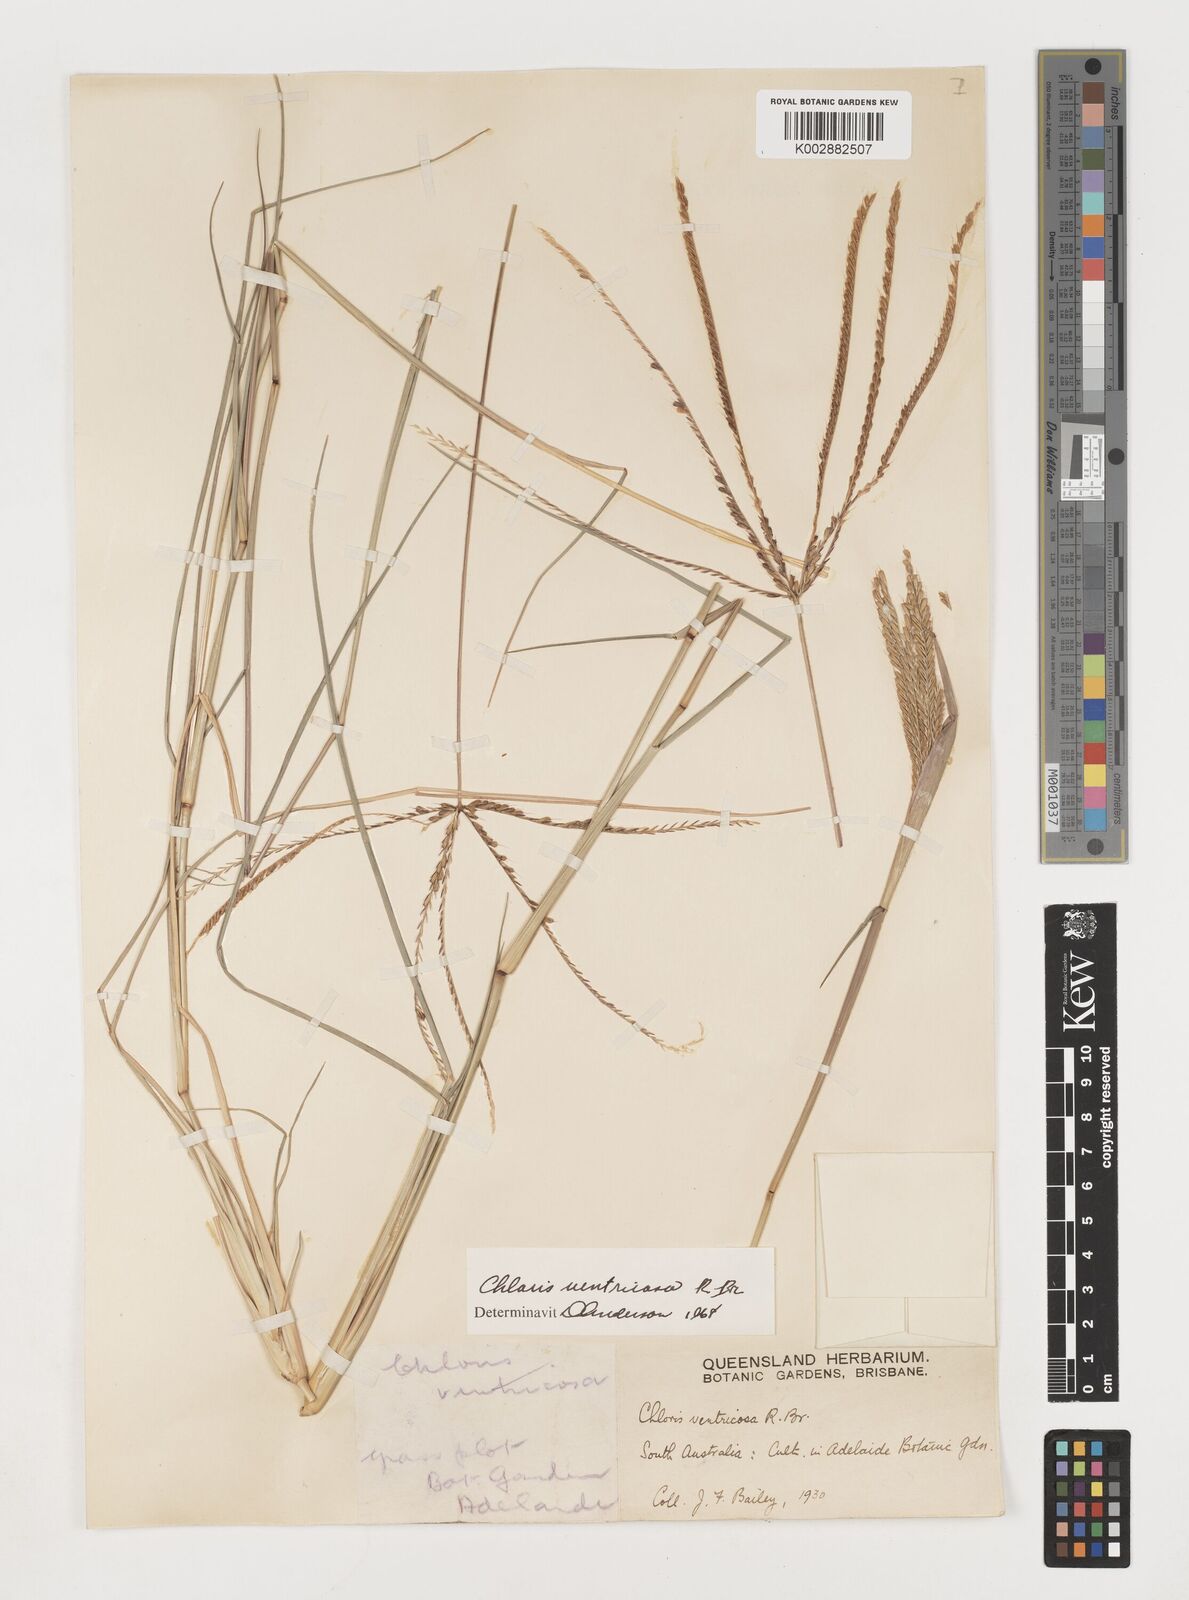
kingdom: Plantae
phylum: Tracheophyta
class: Liliopsida
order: Poales
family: Poaceae
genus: Chloris
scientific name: Chloris ventricosa
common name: Australian windmill grass
